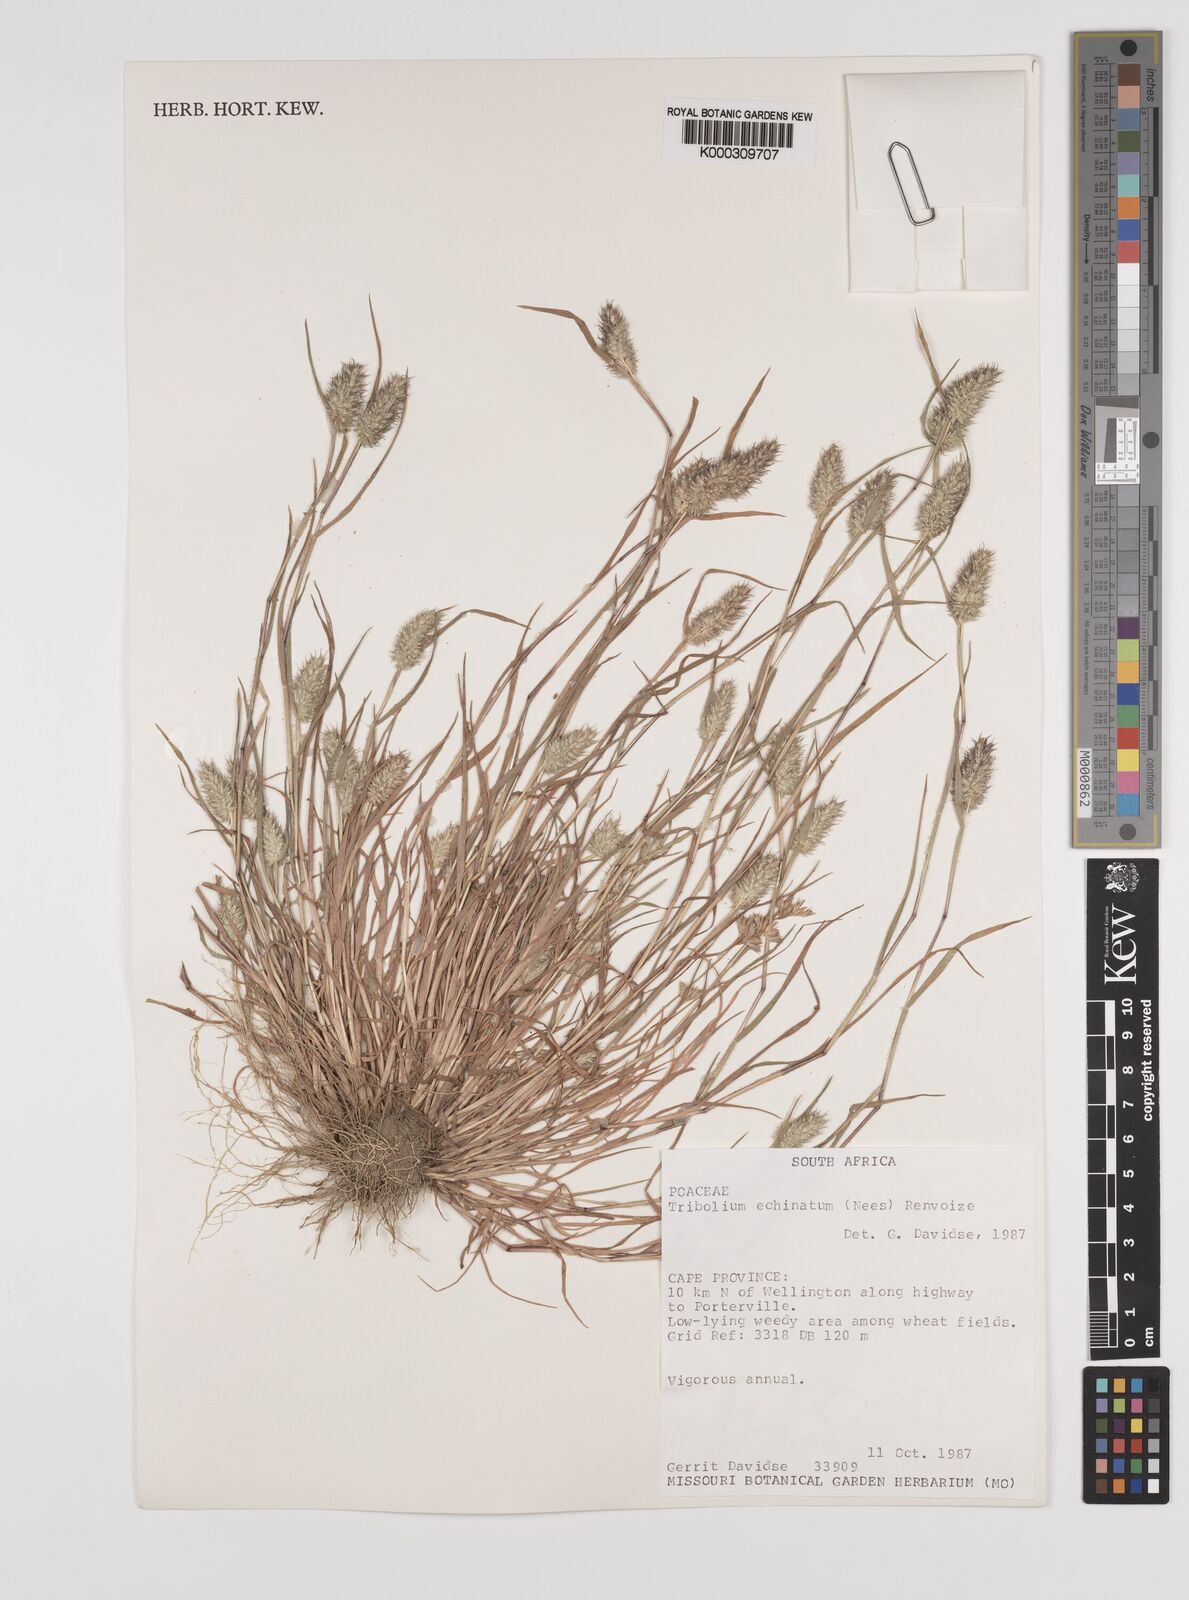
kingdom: Plantae
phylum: Tracheophyta
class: Liliopsida
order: Poales
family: Poaceae
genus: Tribolium
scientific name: Tribolium echinatum
